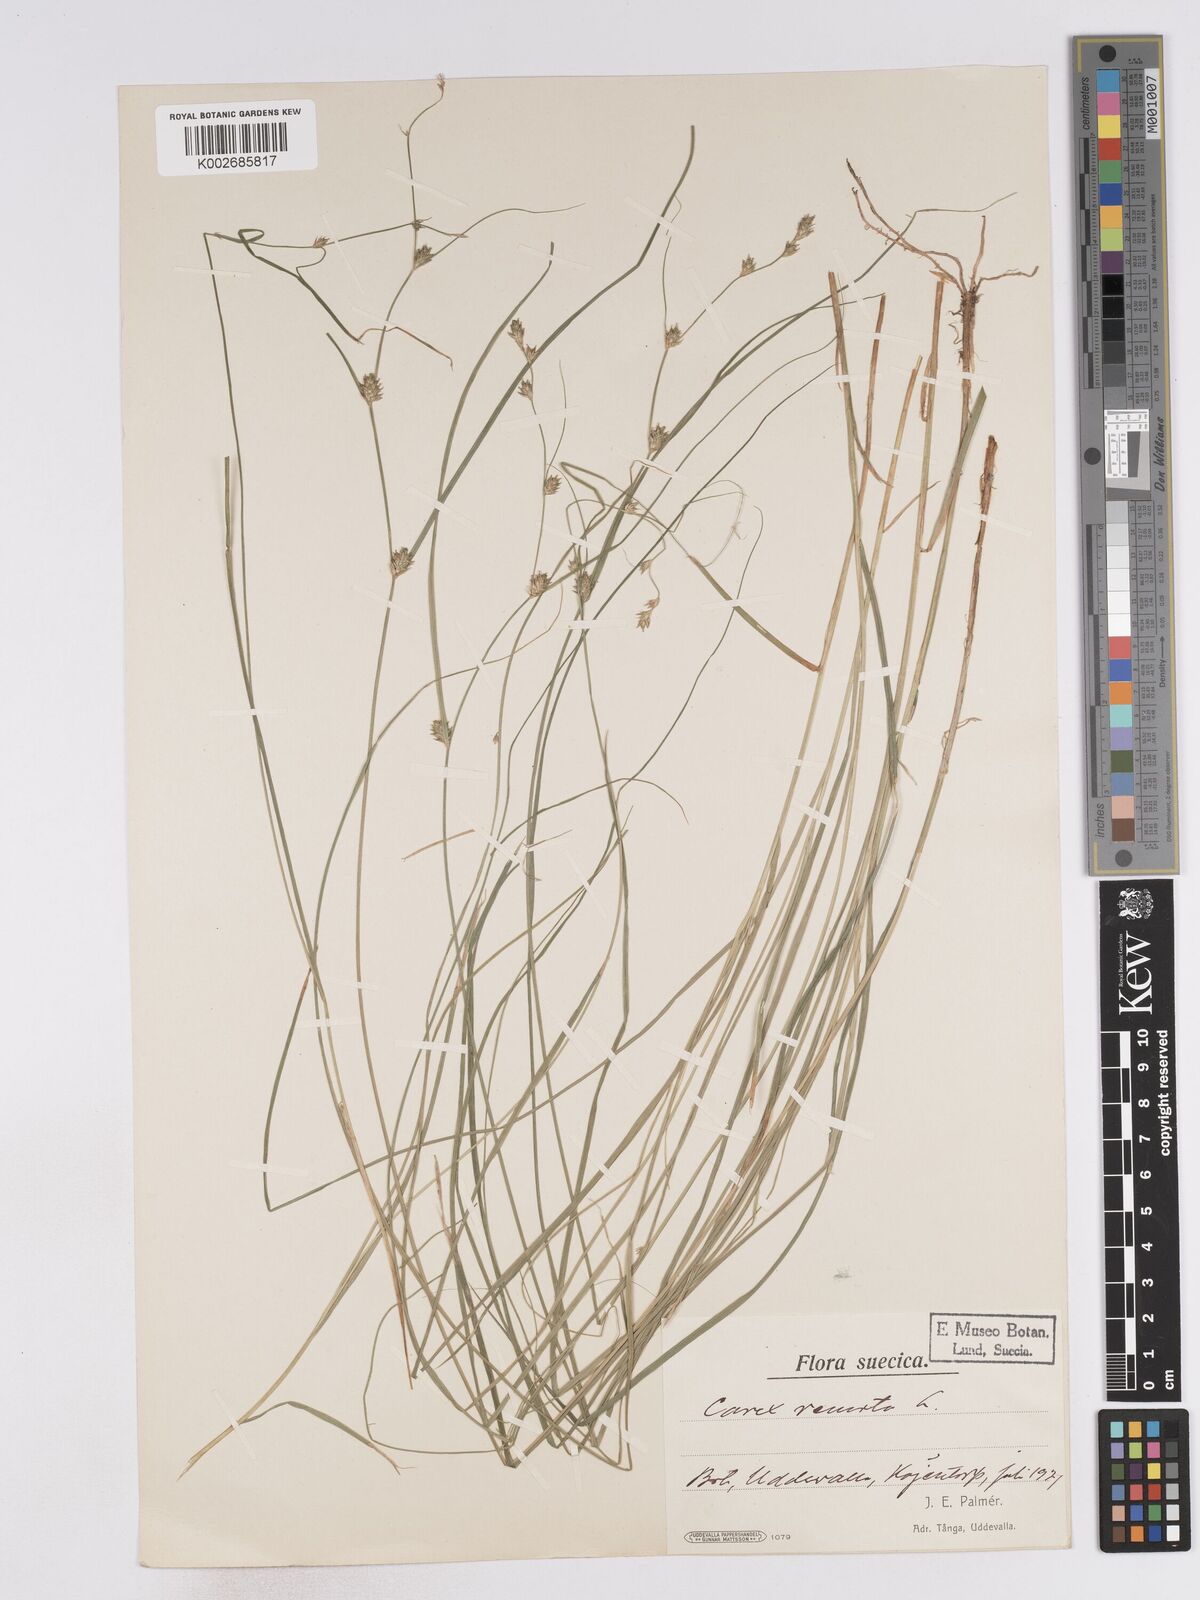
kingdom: Plantae
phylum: Tracheophyta
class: Liliopsida
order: Poales
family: Cyperaceae
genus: Carex
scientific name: Carex remota
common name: Remote sedge
